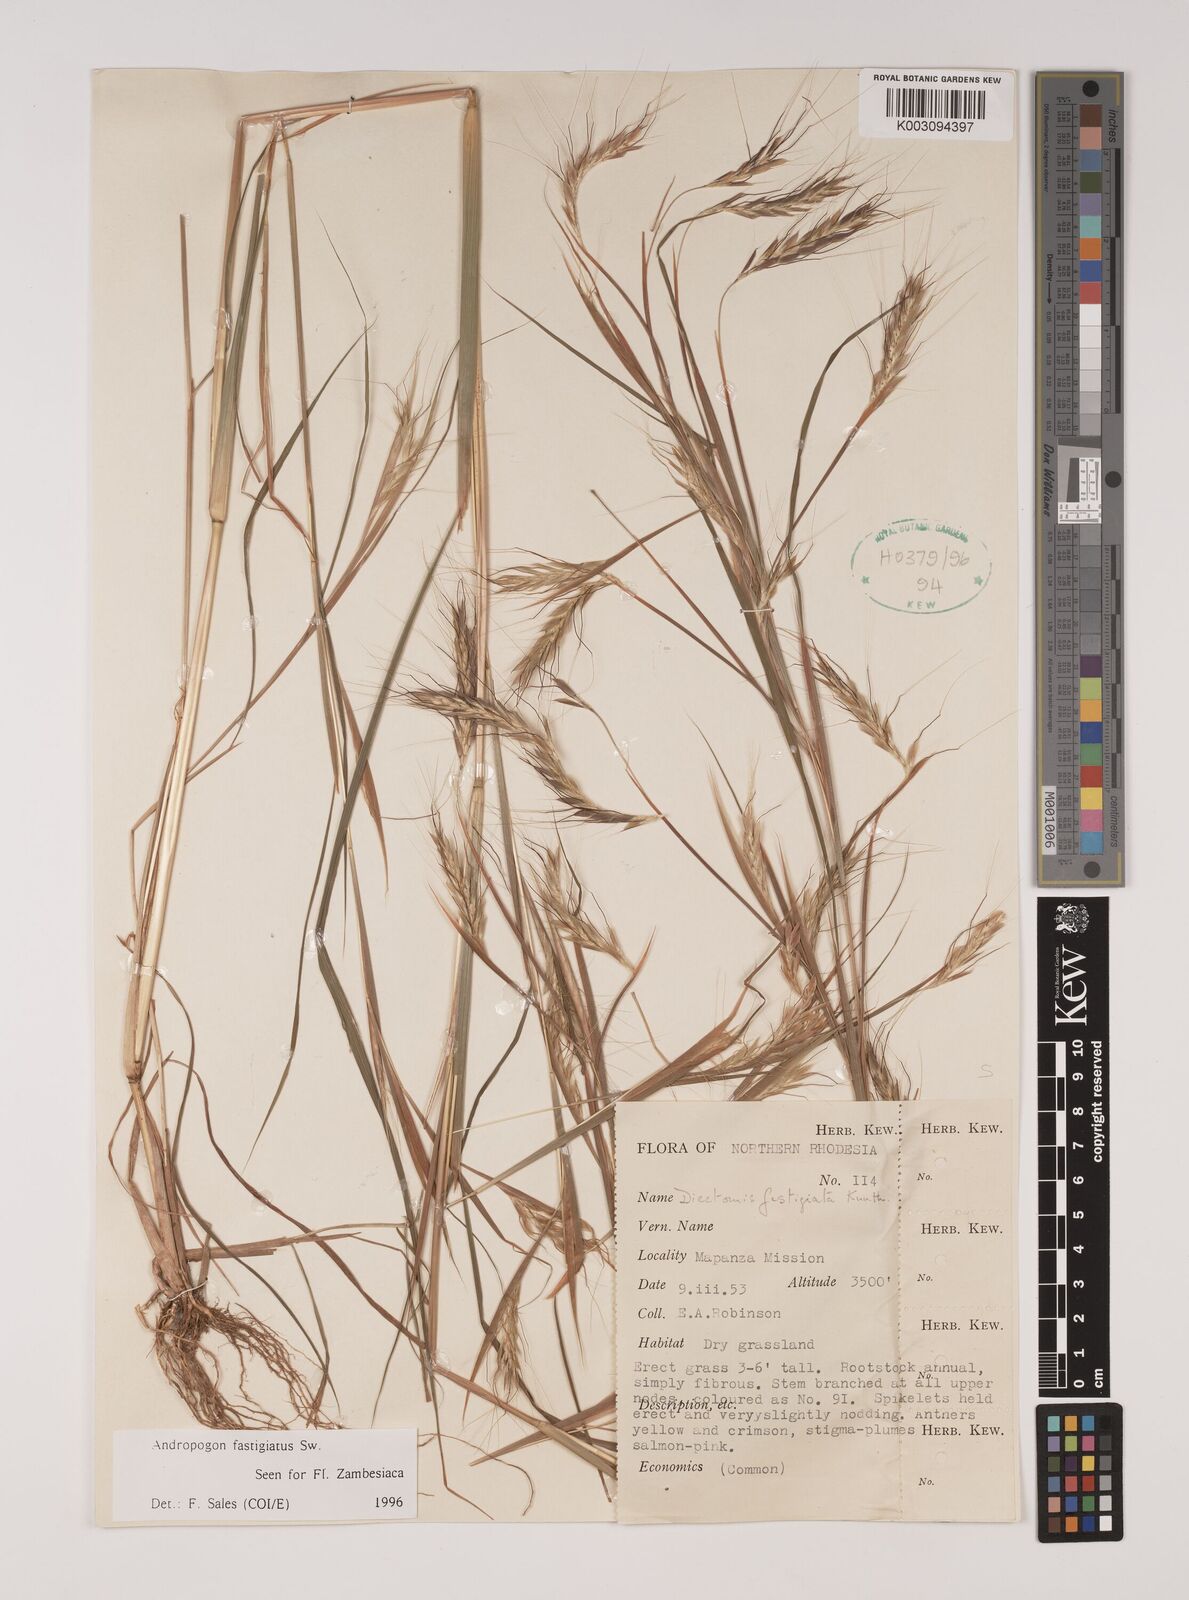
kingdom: Plantae
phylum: Tracheophyta
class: Liliopsida
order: Poales
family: Poaceae
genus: Diectomis
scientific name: Diectomis fastigiata
